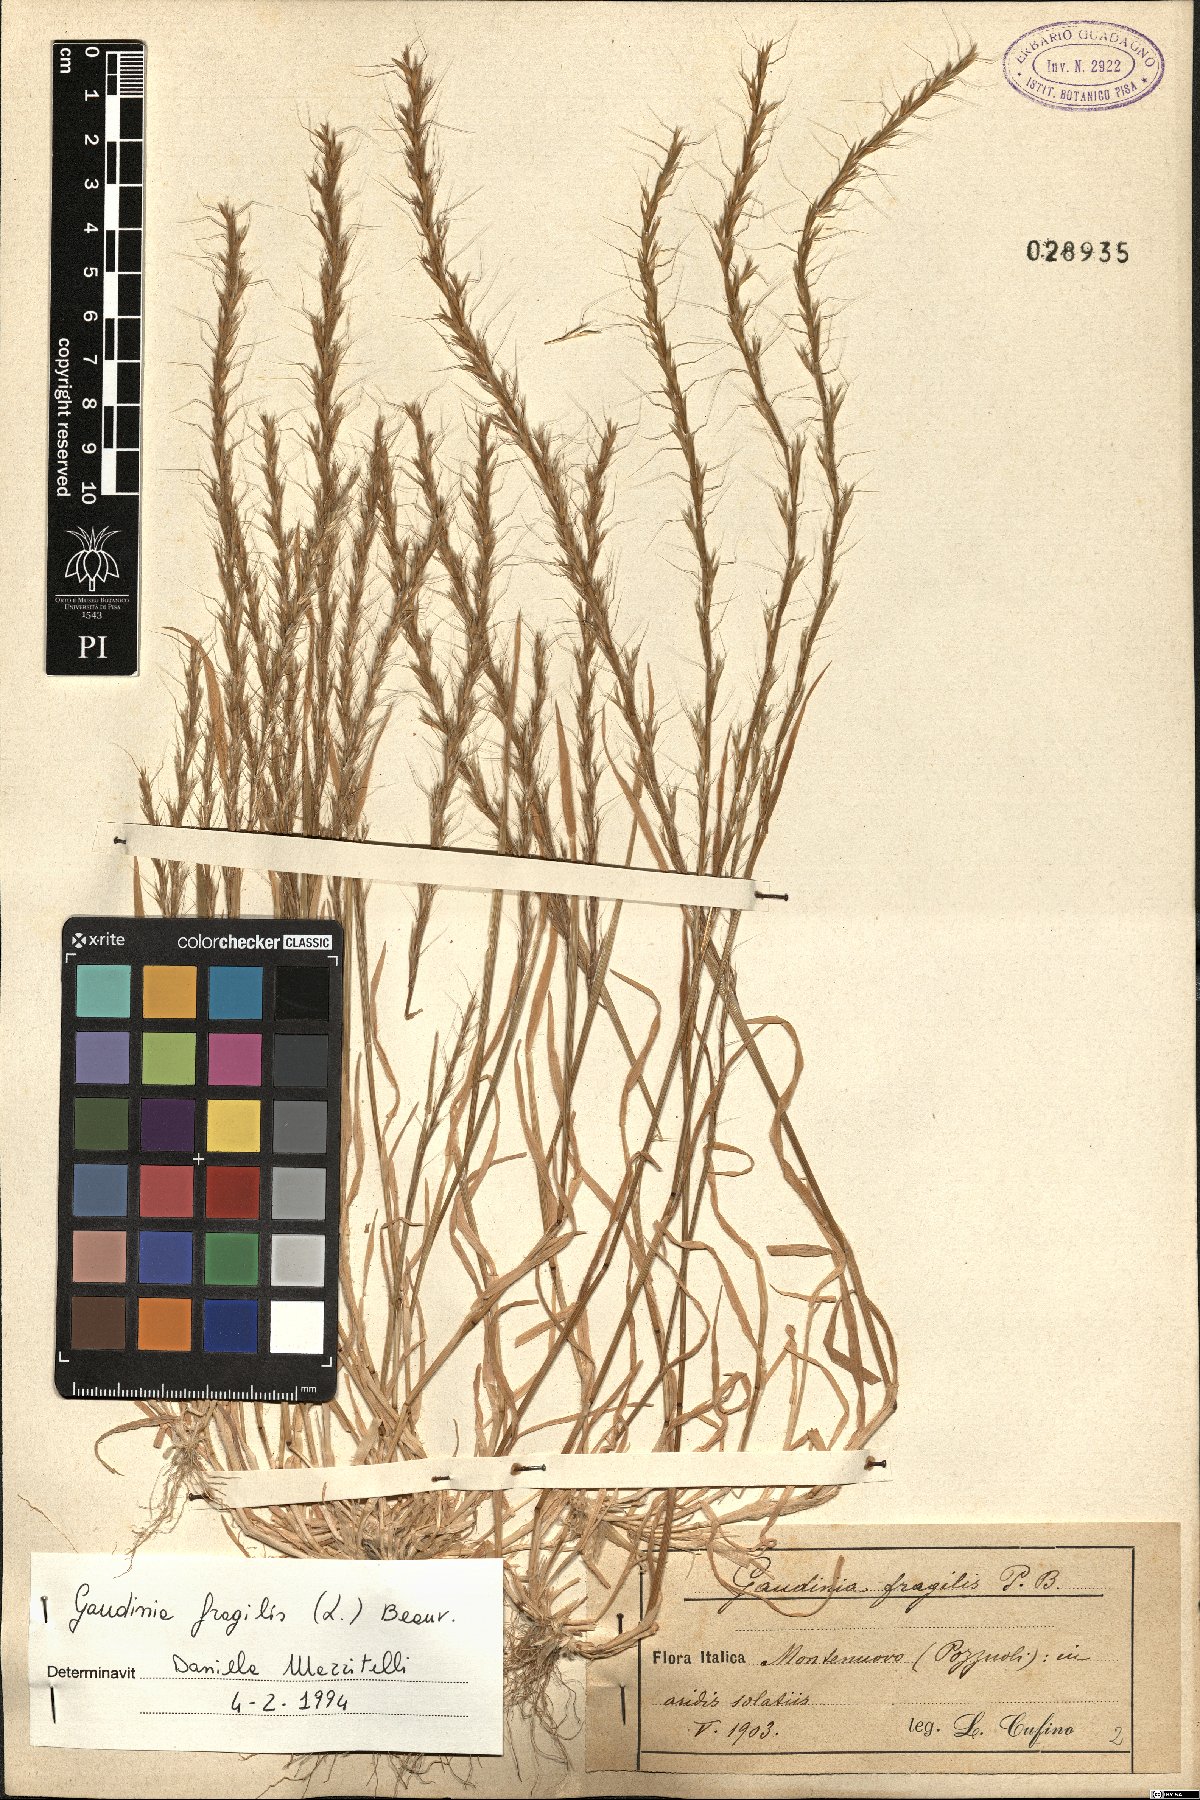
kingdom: Plantae
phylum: Tracheophyta
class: Liliopsida
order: Poales
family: Poaceae
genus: Gaudinia
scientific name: Gaudinia fragilis
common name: French oat-grass
